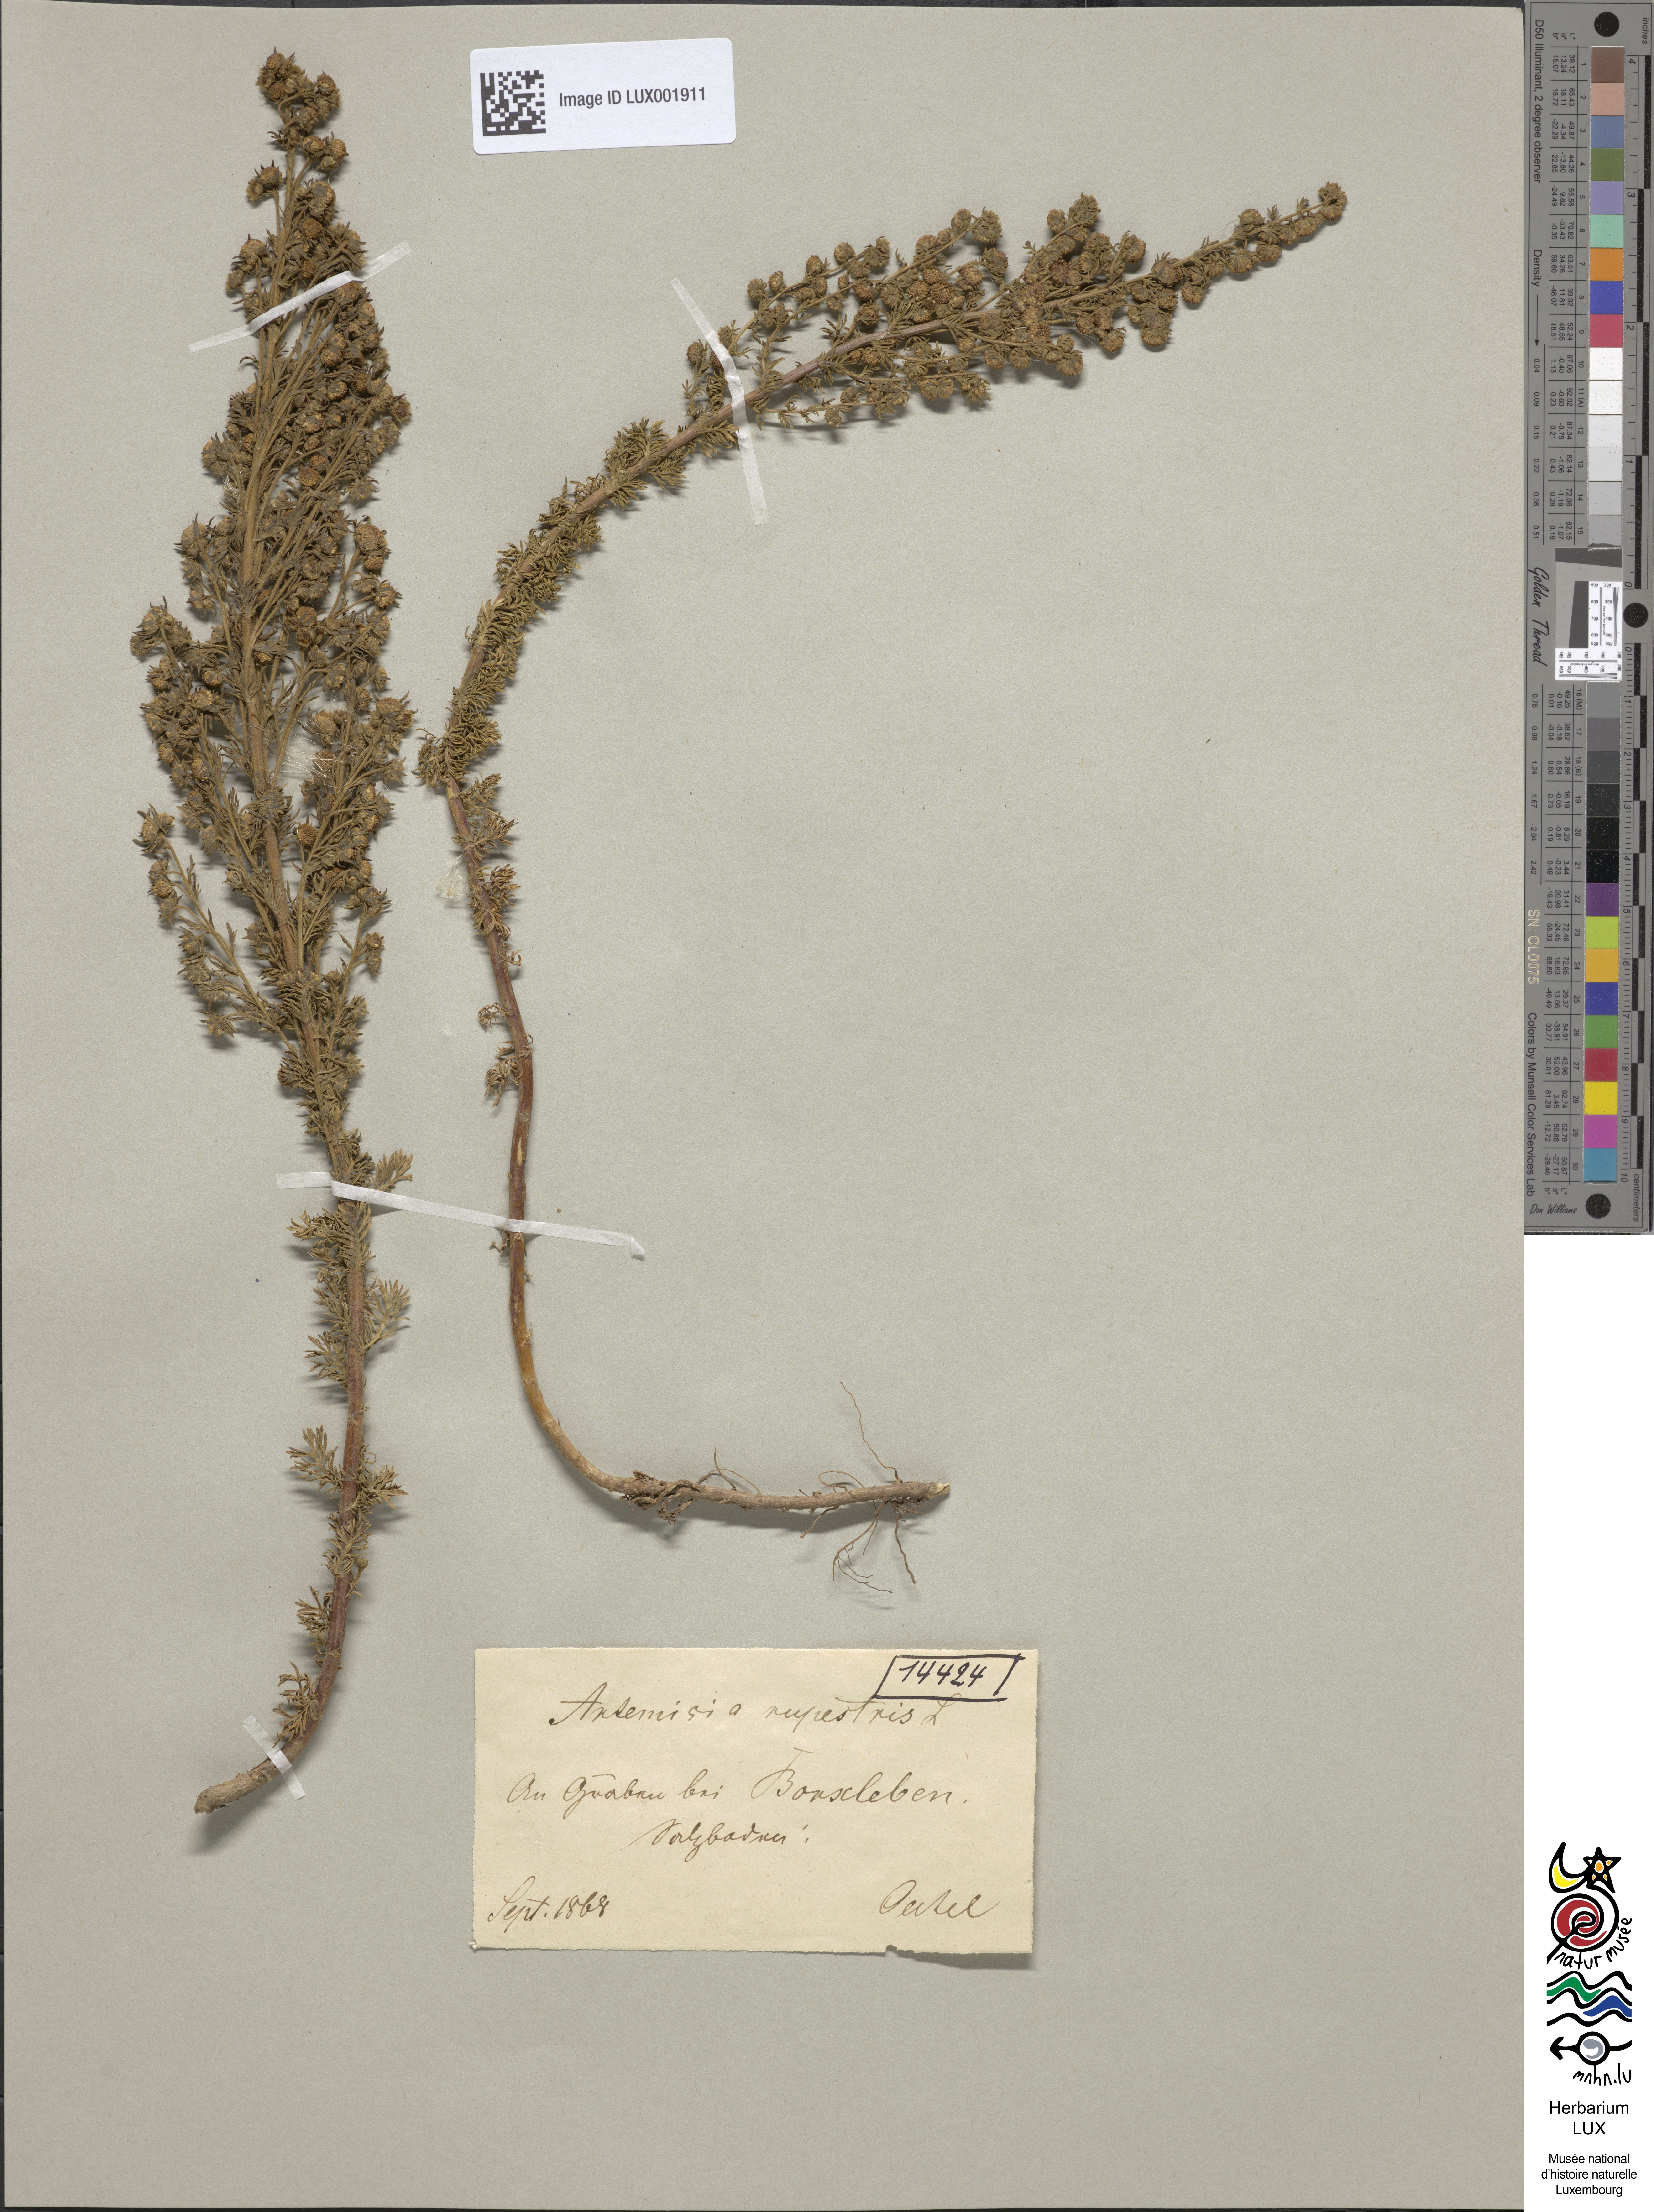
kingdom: Plantae
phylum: Tracheophyta
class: Magnoliopsida
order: Asterales
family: Asteraceae
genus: Artemisia
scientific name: Artemisia rupestris
